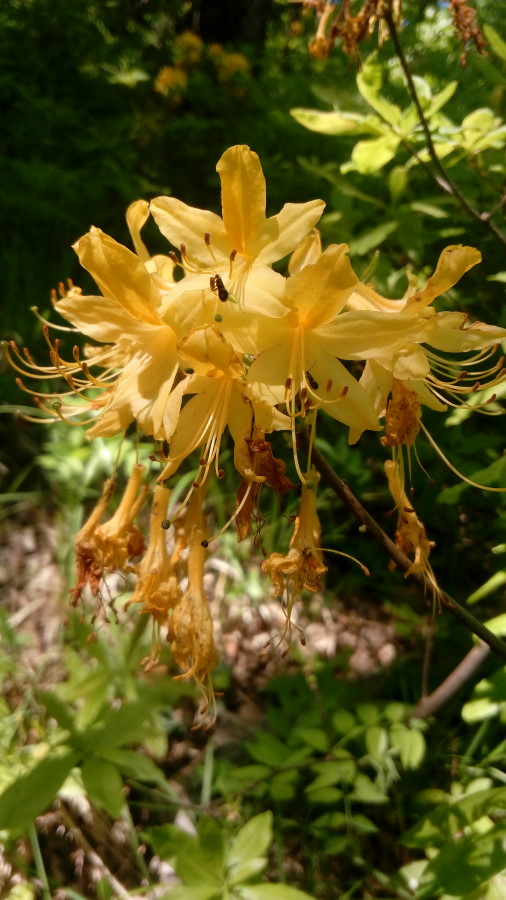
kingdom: Plantae
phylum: Tracheophyta
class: Magnoliopsida
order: Ericales
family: Ericaceae
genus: Rhododendron
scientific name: Rhododendron luteum
